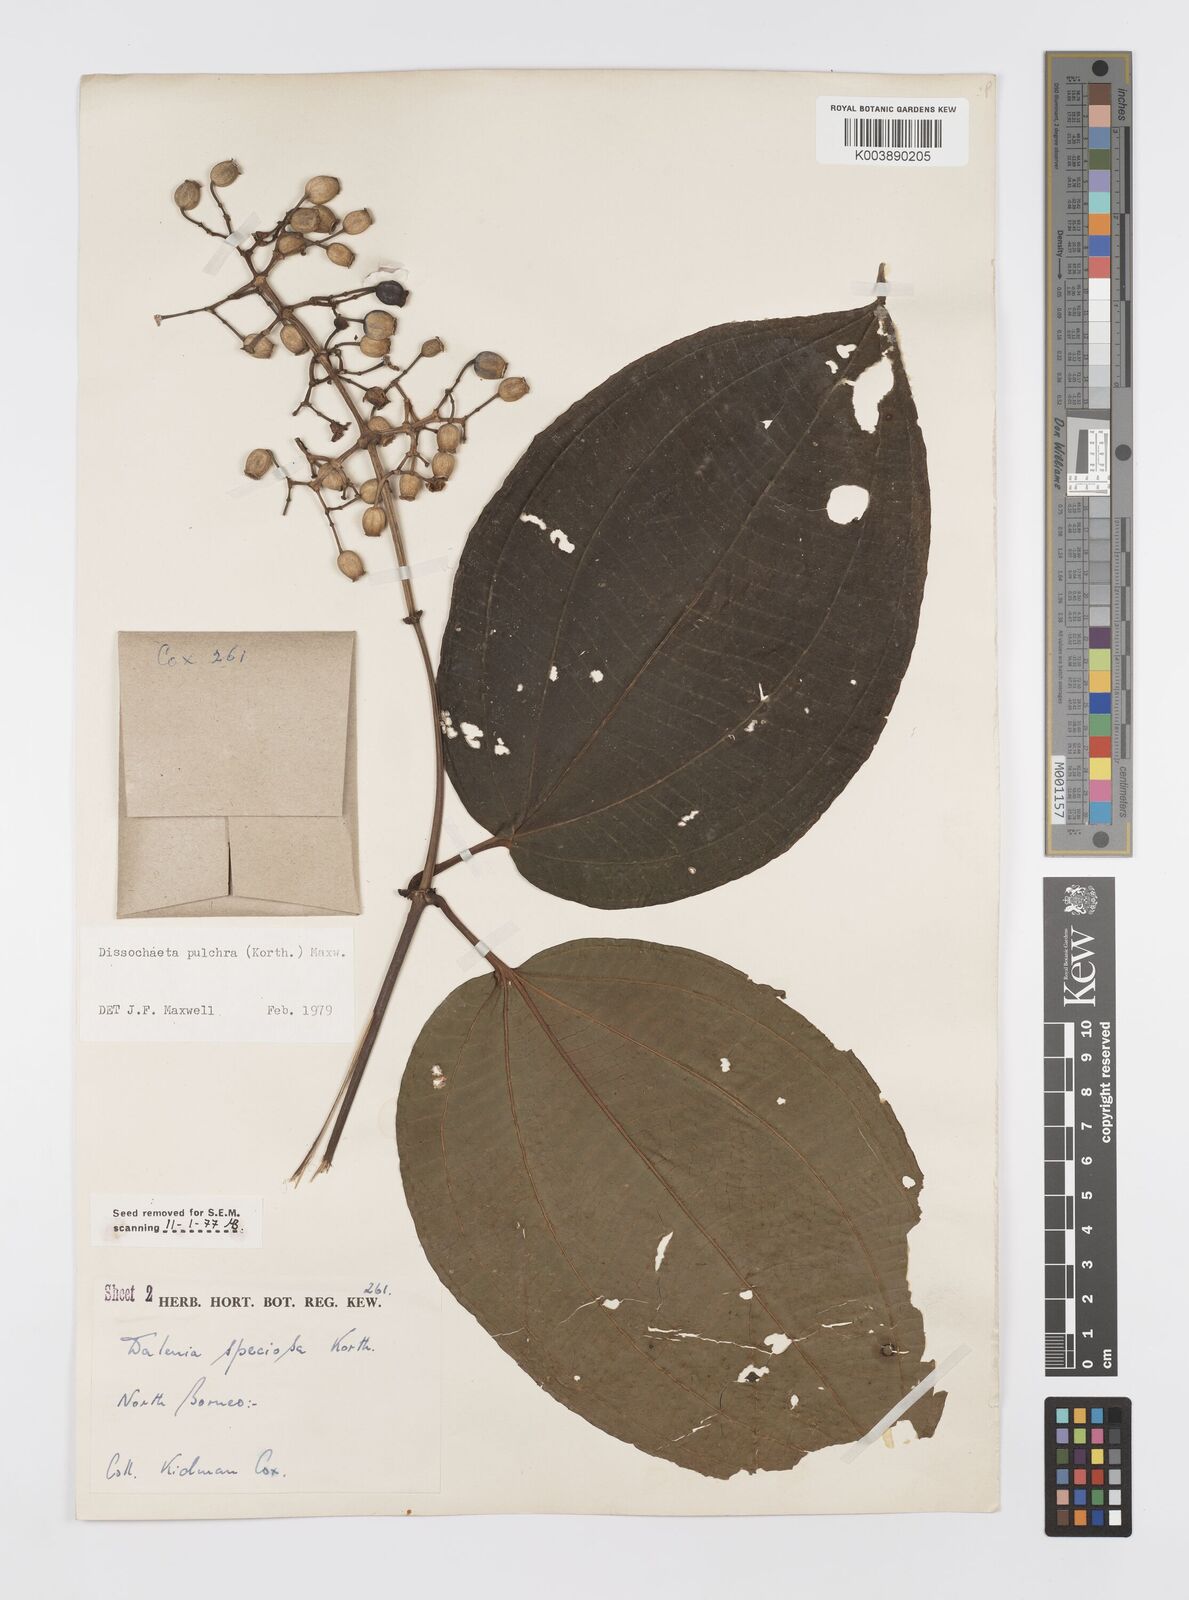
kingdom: Plantae
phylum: Tracheophyta
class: Magnoliopsida
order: Myrtales
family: Melastomataceae
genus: Dalenia
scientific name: Dalenia pulchra
